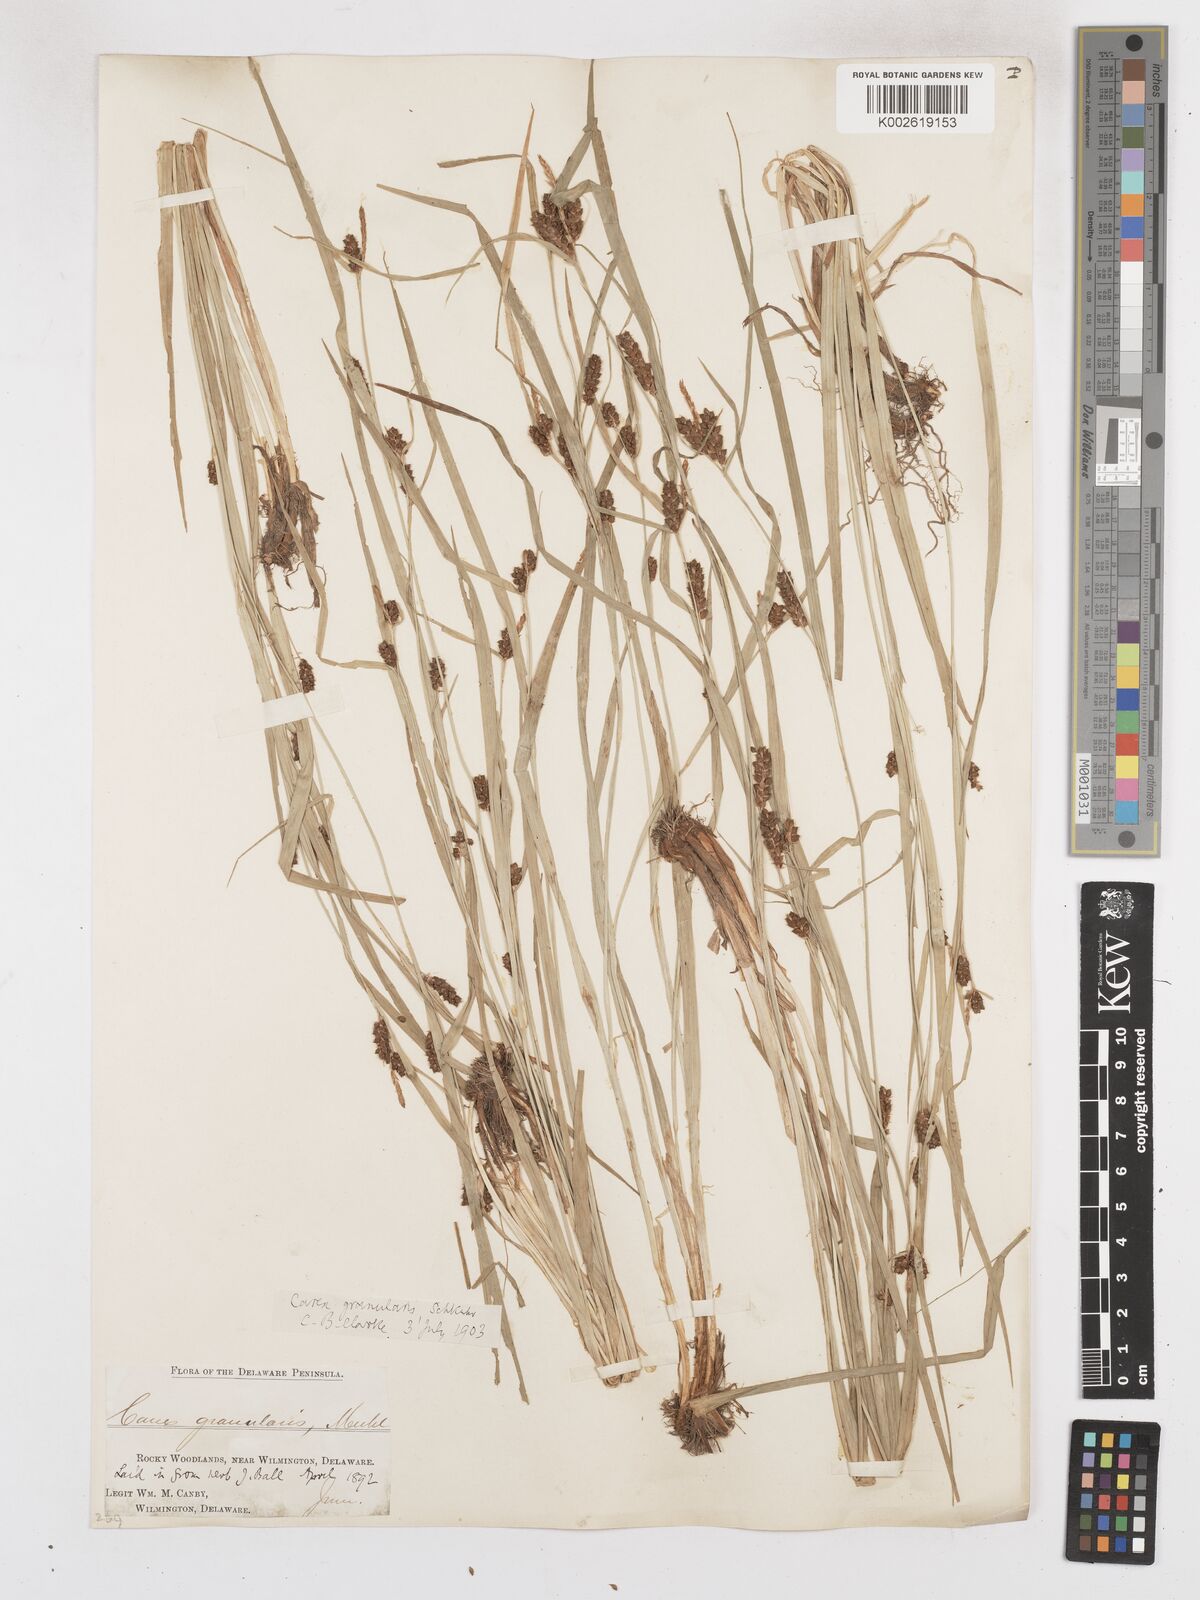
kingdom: Plantae
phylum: Tracheophyta
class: Liliopsida
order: Poales
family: Cyperaceae
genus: Carex
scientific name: Carex granularis
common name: Granular sedge
